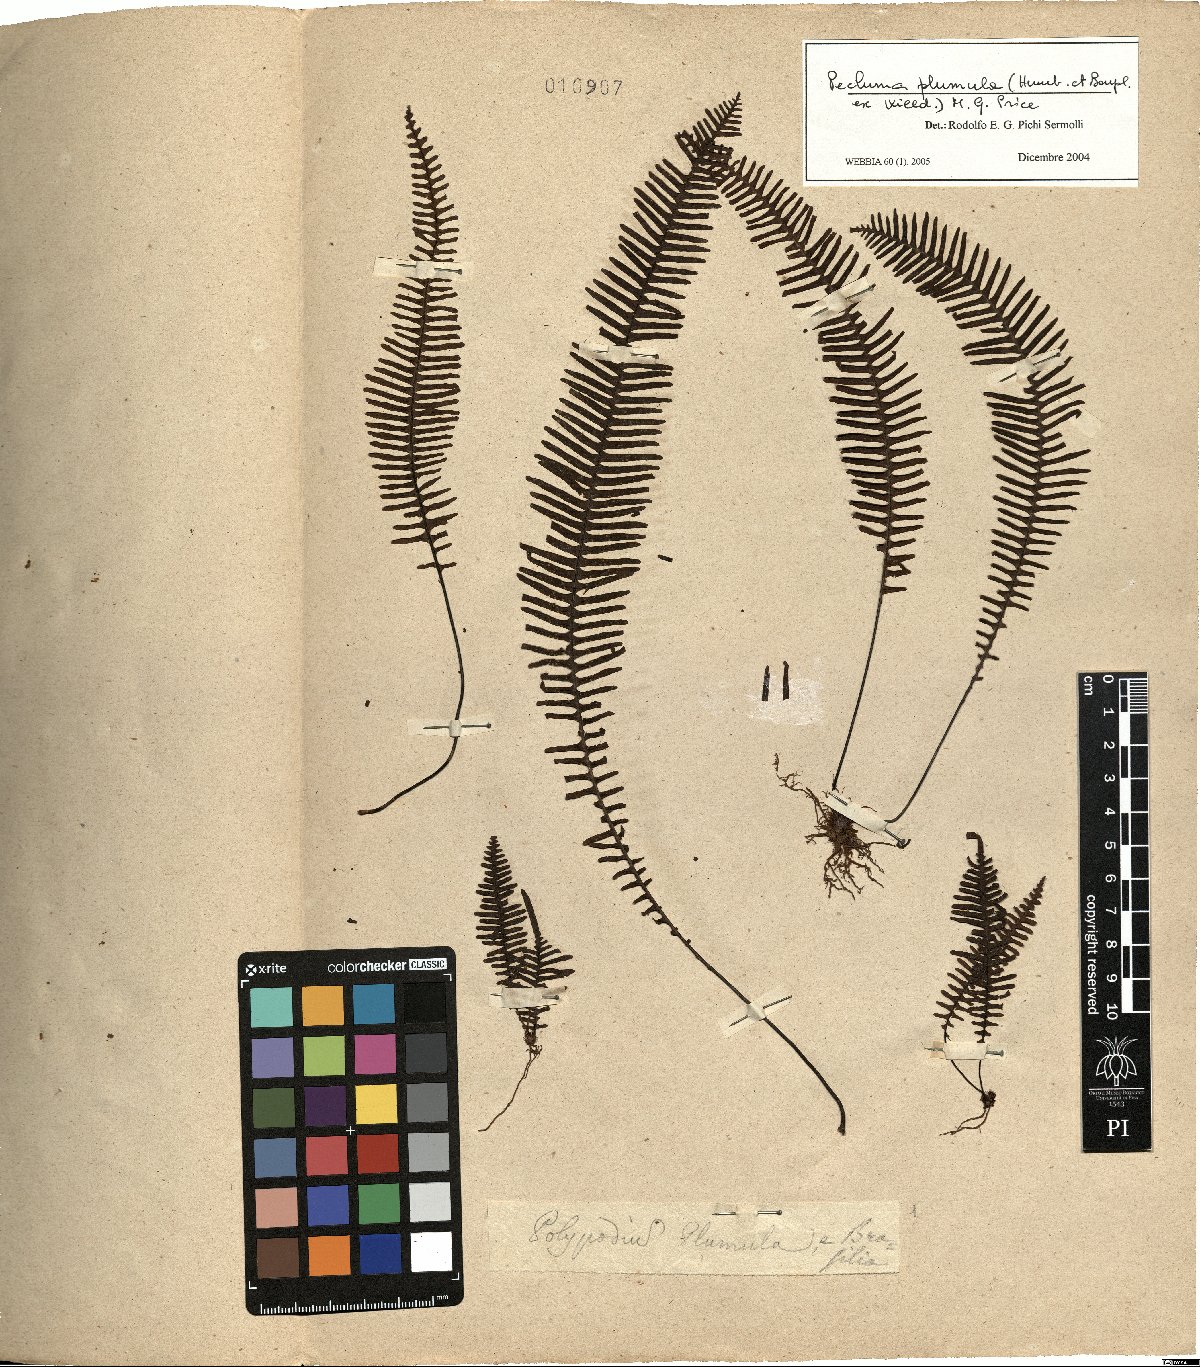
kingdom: Plantae
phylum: Tracheophyta
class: Polypodiopsida
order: Polypodiales
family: Polypodiaceae
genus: Pecluma
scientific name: Pecluma plumula
